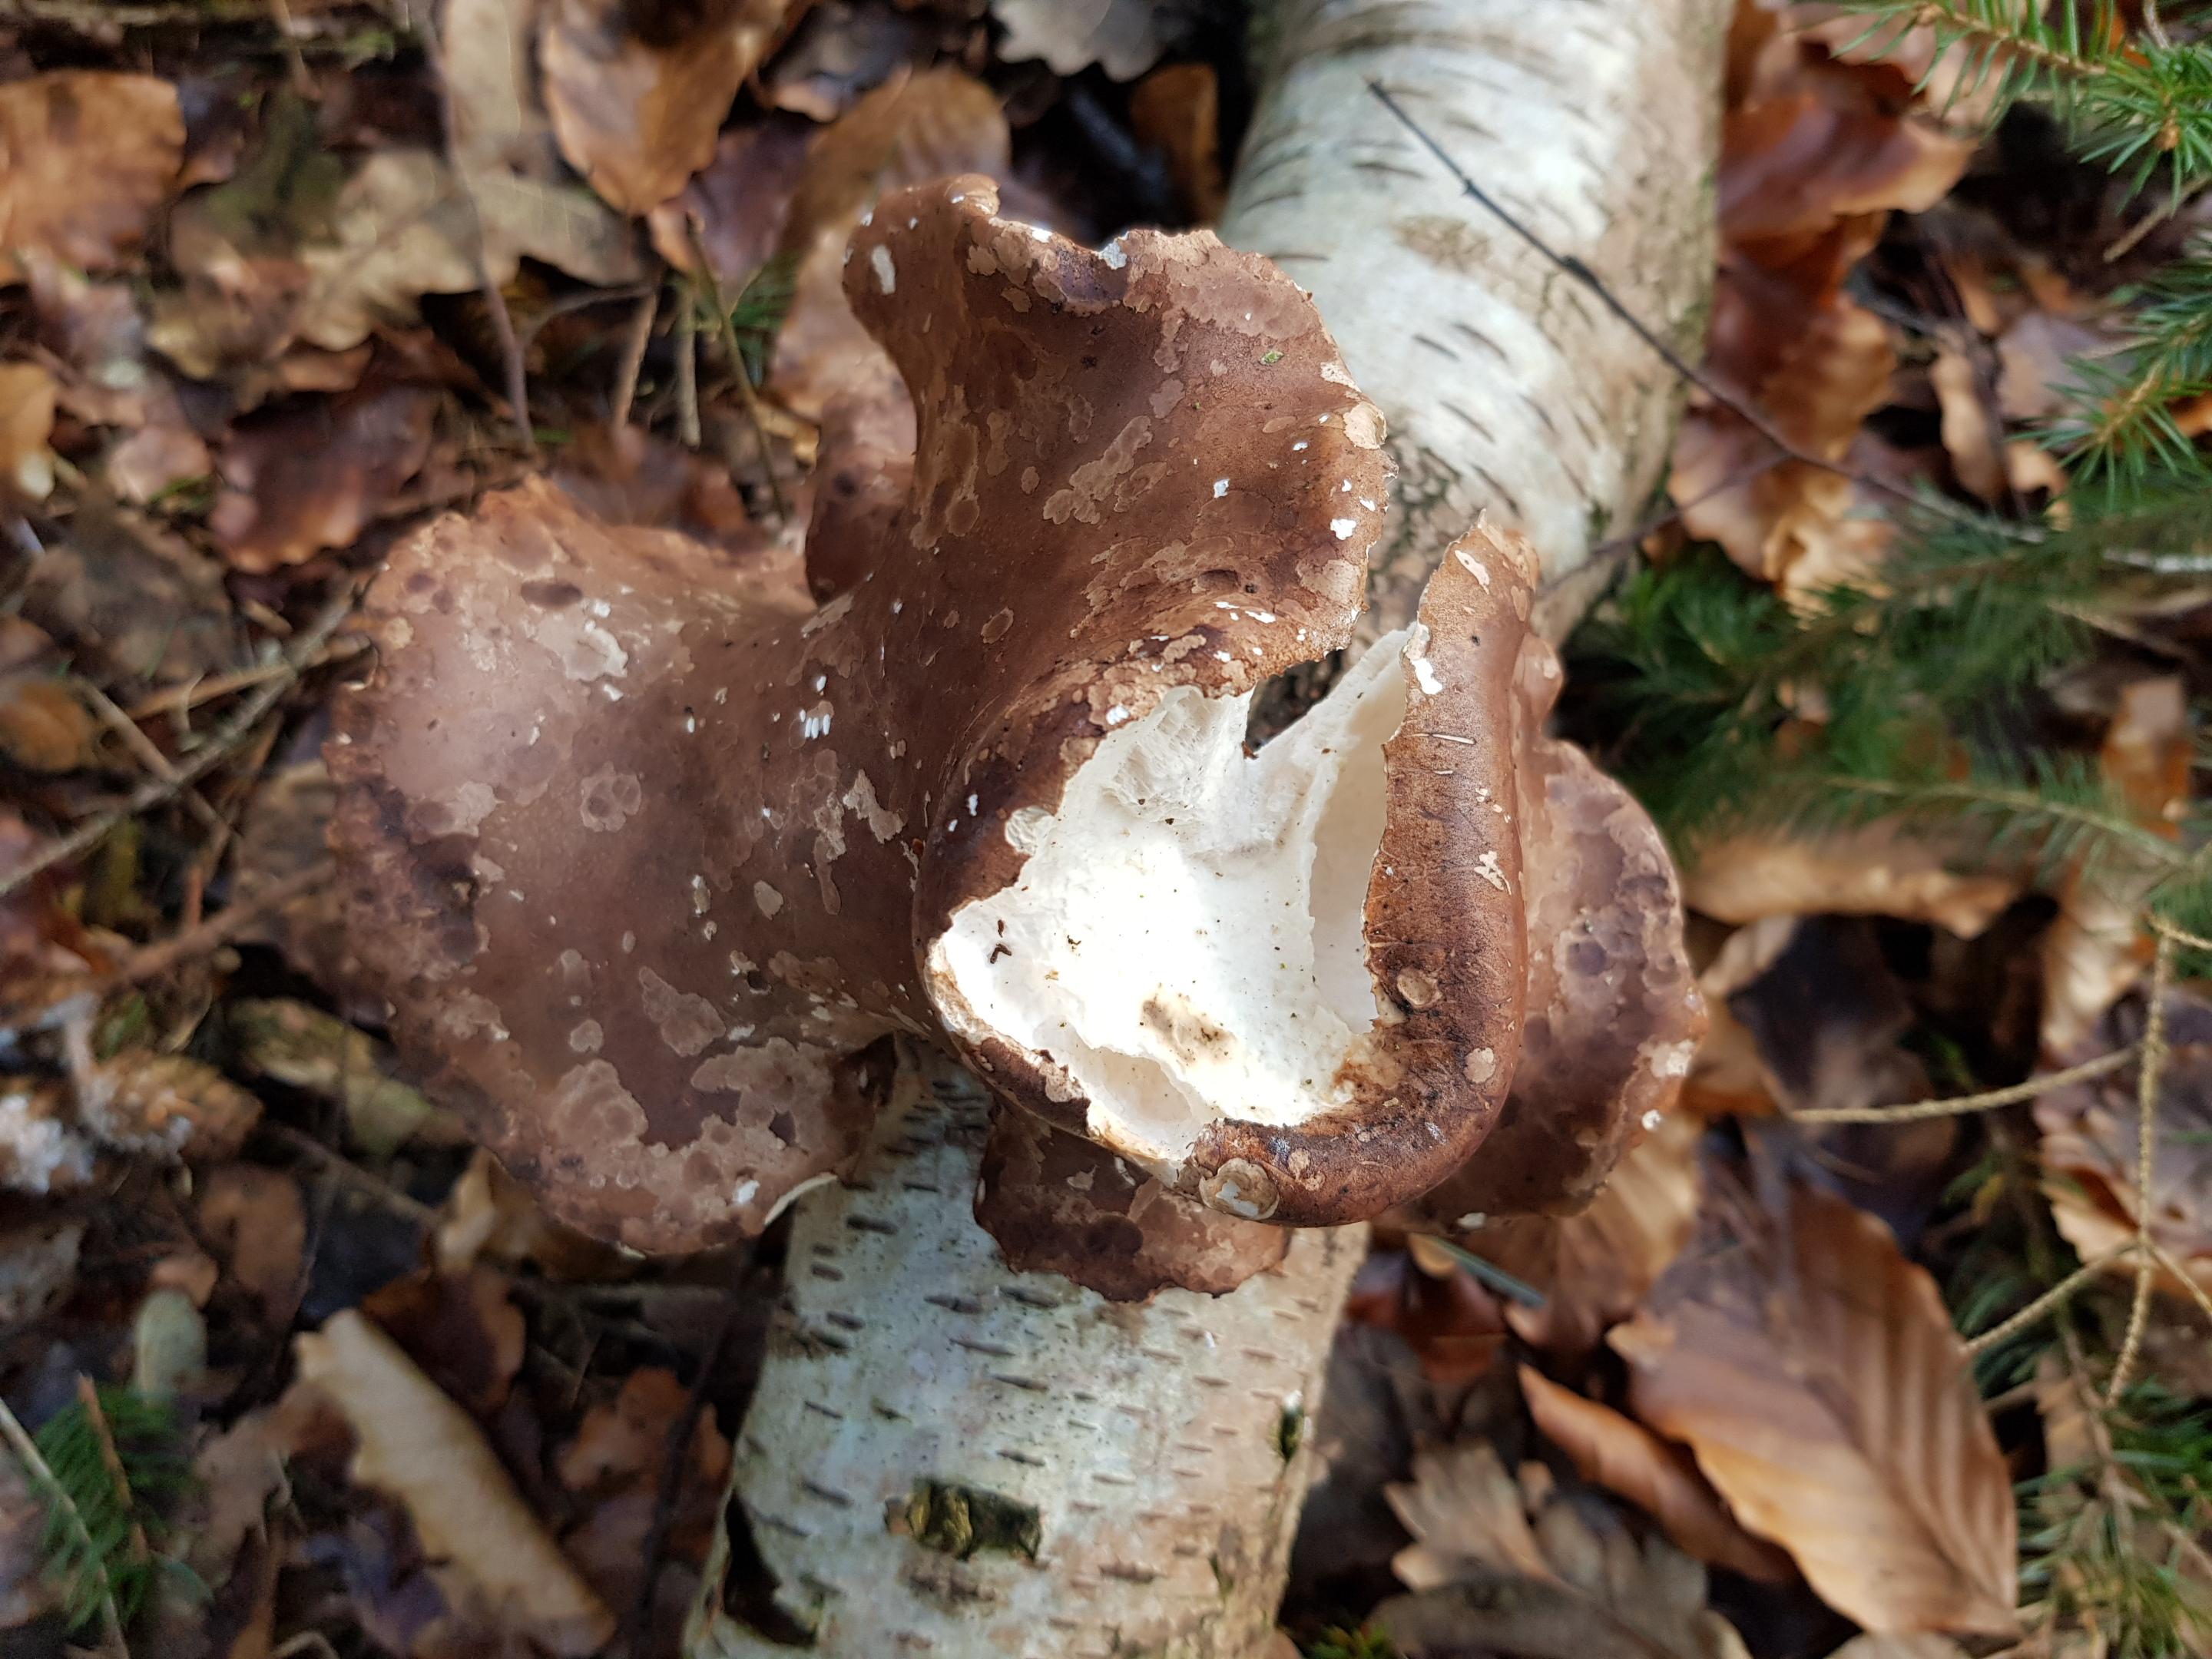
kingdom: Fungi
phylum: Basidiomycota
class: Agaricomycetes
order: Polyporales
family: Fomitopsidaceae
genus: Fomitopsis
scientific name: Fomitopsis betulina
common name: birkeporesvamp
